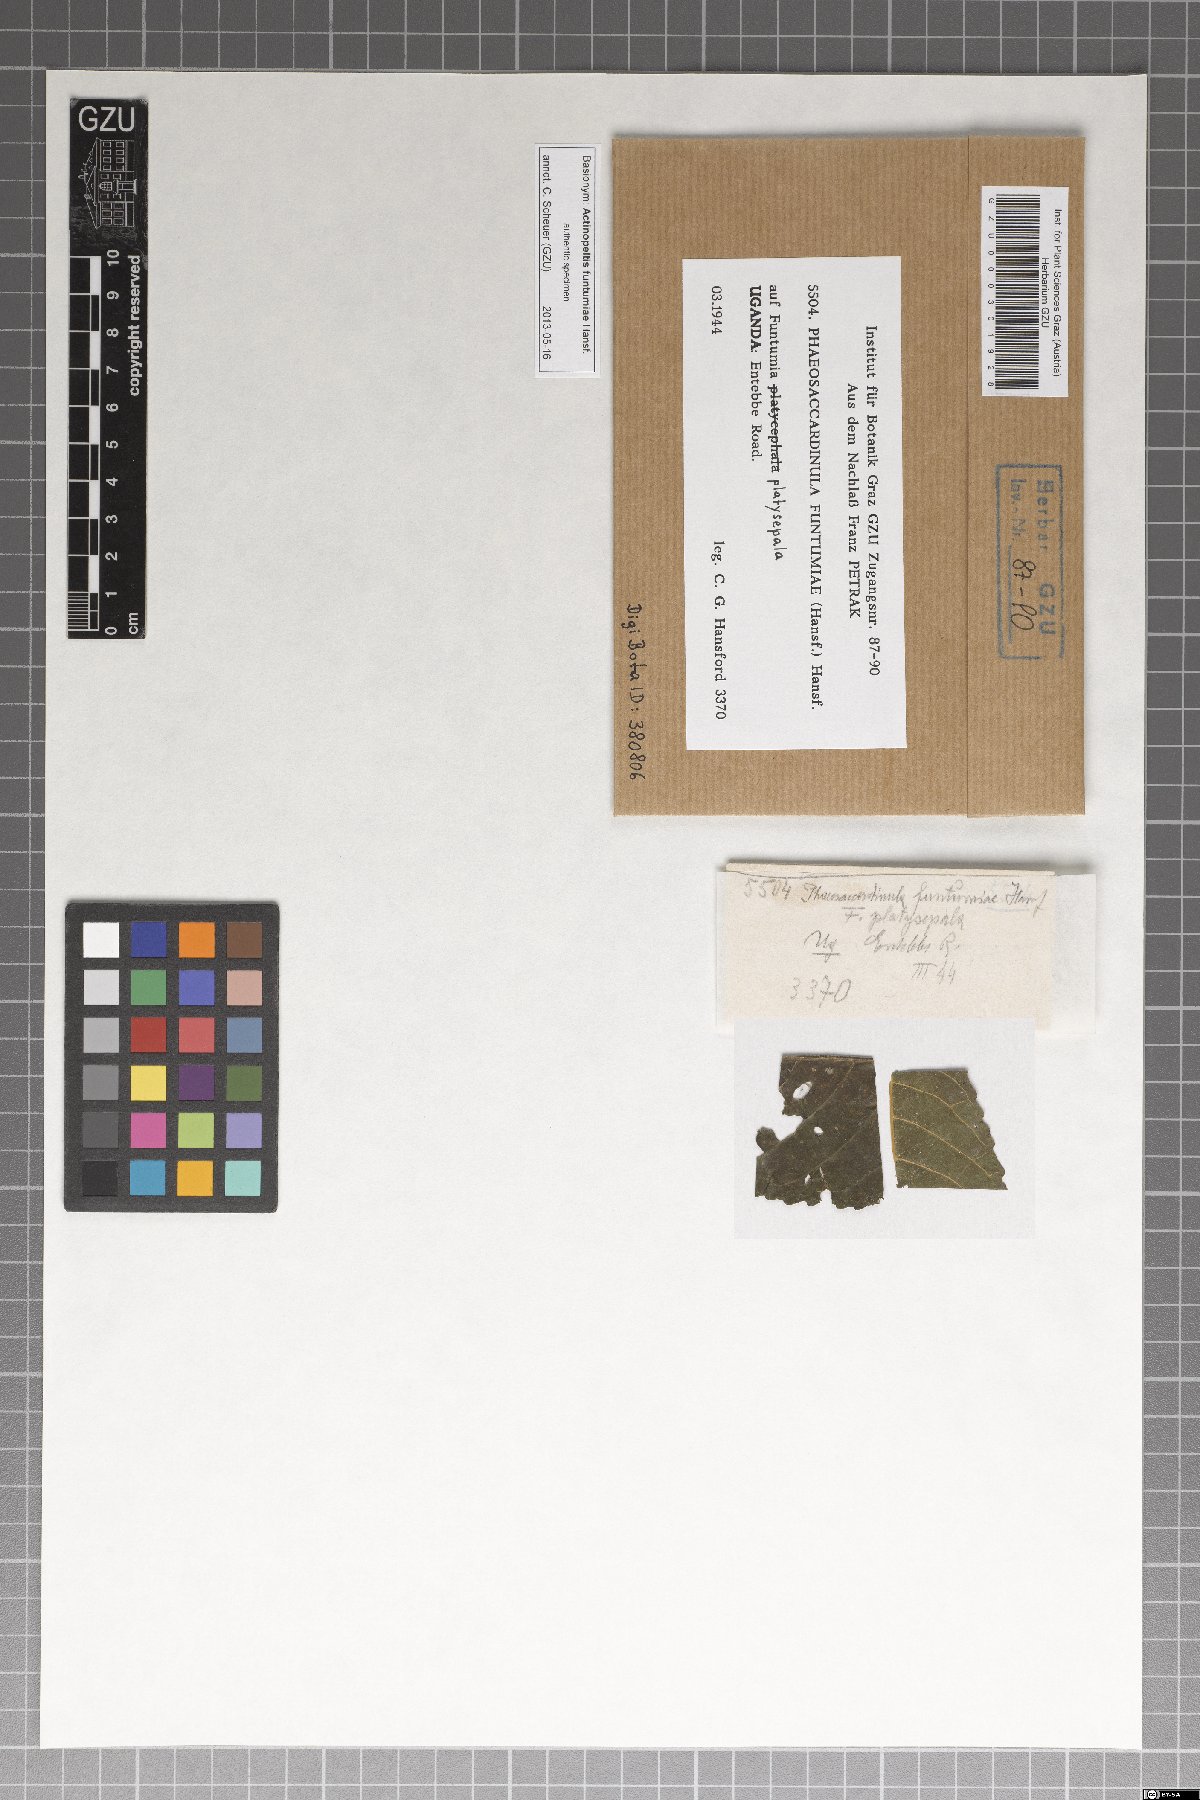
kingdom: Fungi
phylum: Ascomycota
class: Eurotiomycetes
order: Chaetothyriales
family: Chaetothyriaceae
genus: Treubiomyces
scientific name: Treubiomyces funtumiae
